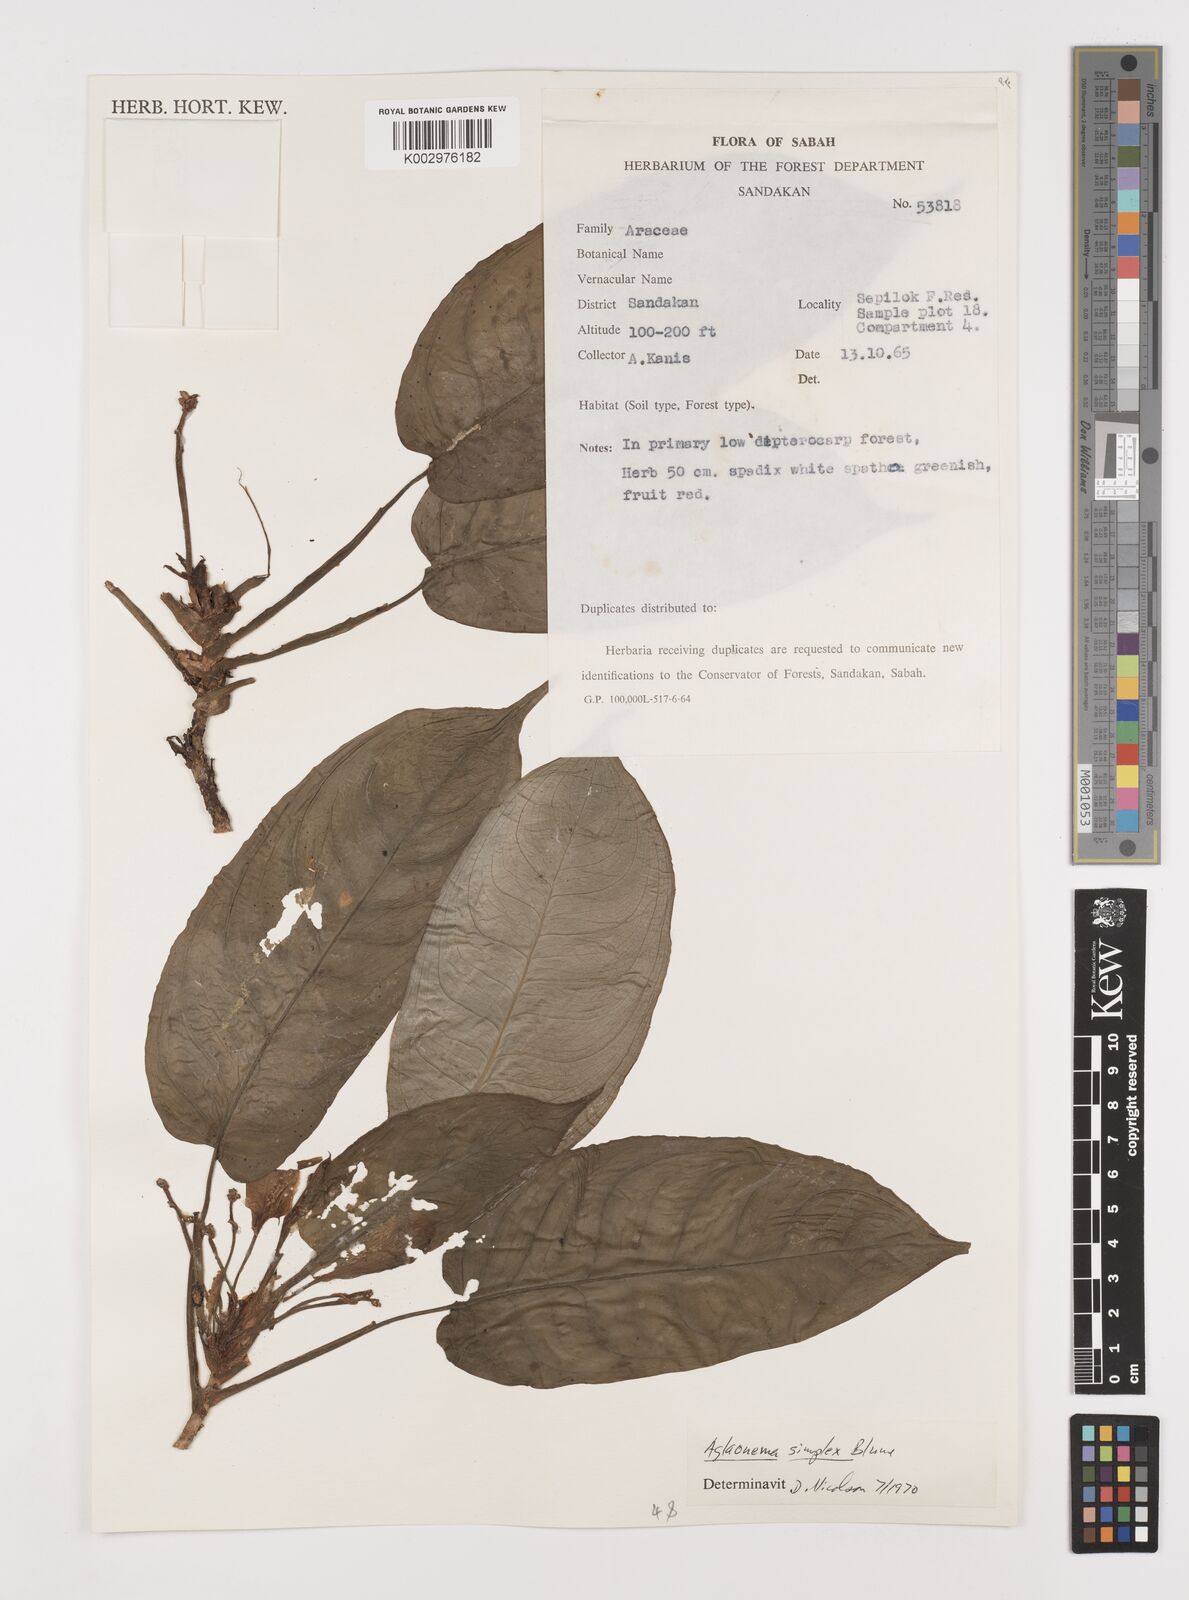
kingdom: Plantae
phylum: Tracheophyta
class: Liliopsida
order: Alismatales
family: Araceae
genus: Aglaonema
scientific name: Aglaonema simplex
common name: Malayan-sword
